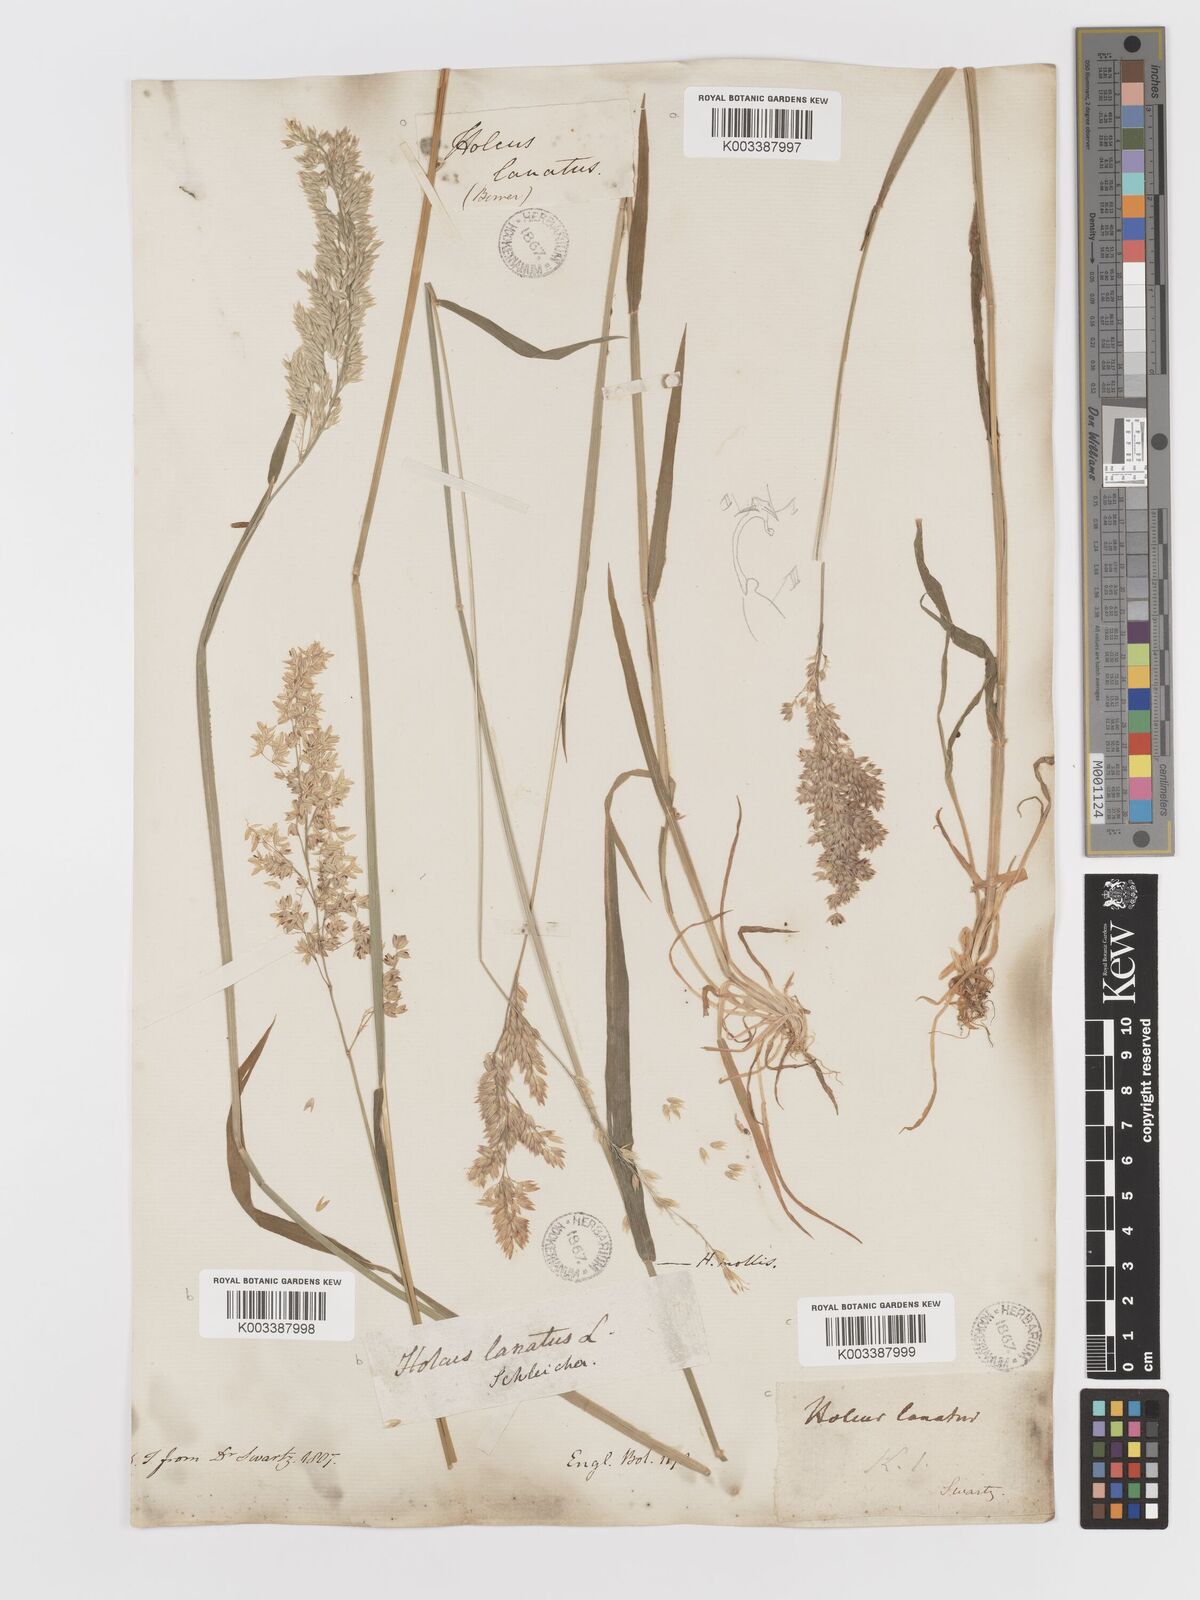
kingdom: Plantae
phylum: Tracheophyta
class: Liliopsida
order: Poales
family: Poaceae
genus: Holcus
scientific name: Holcus lanatus
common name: Yorkshire-fog
